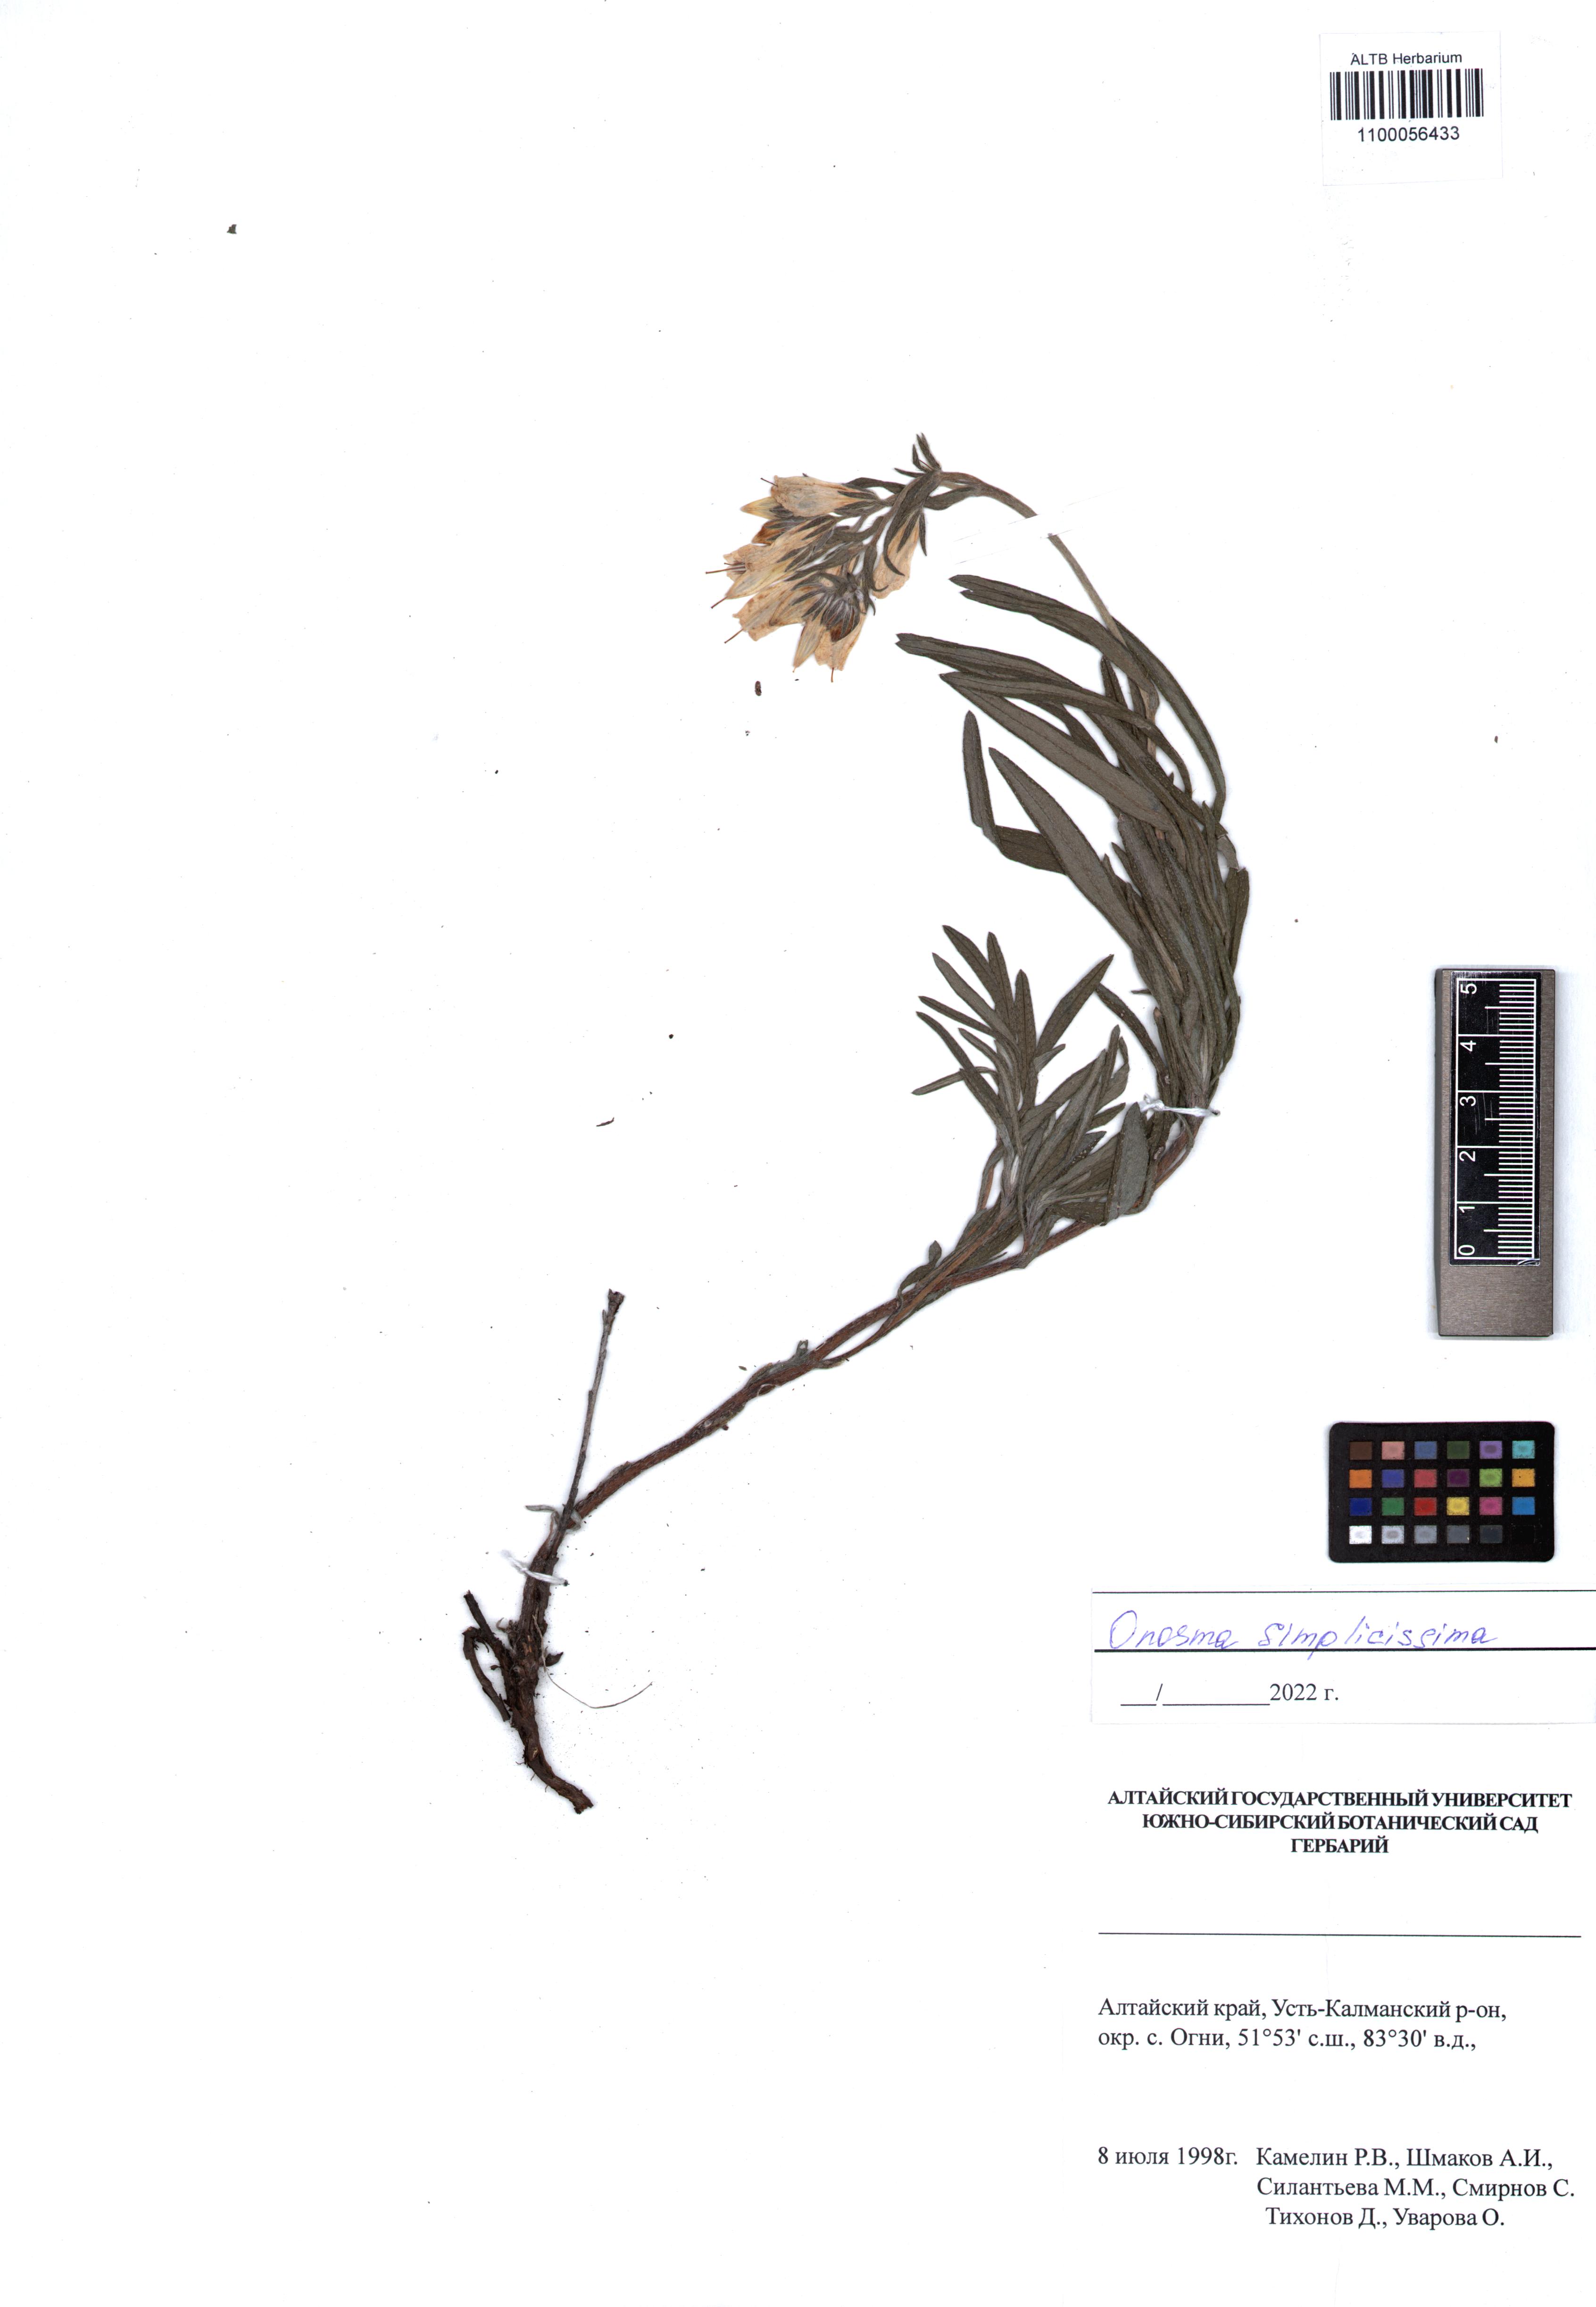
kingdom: Plantae
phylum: Tracheophyta
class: Magnoliopsida
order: Boraginales
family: Boraginaceae
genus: Onosma
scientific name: Onosma simplicissima
